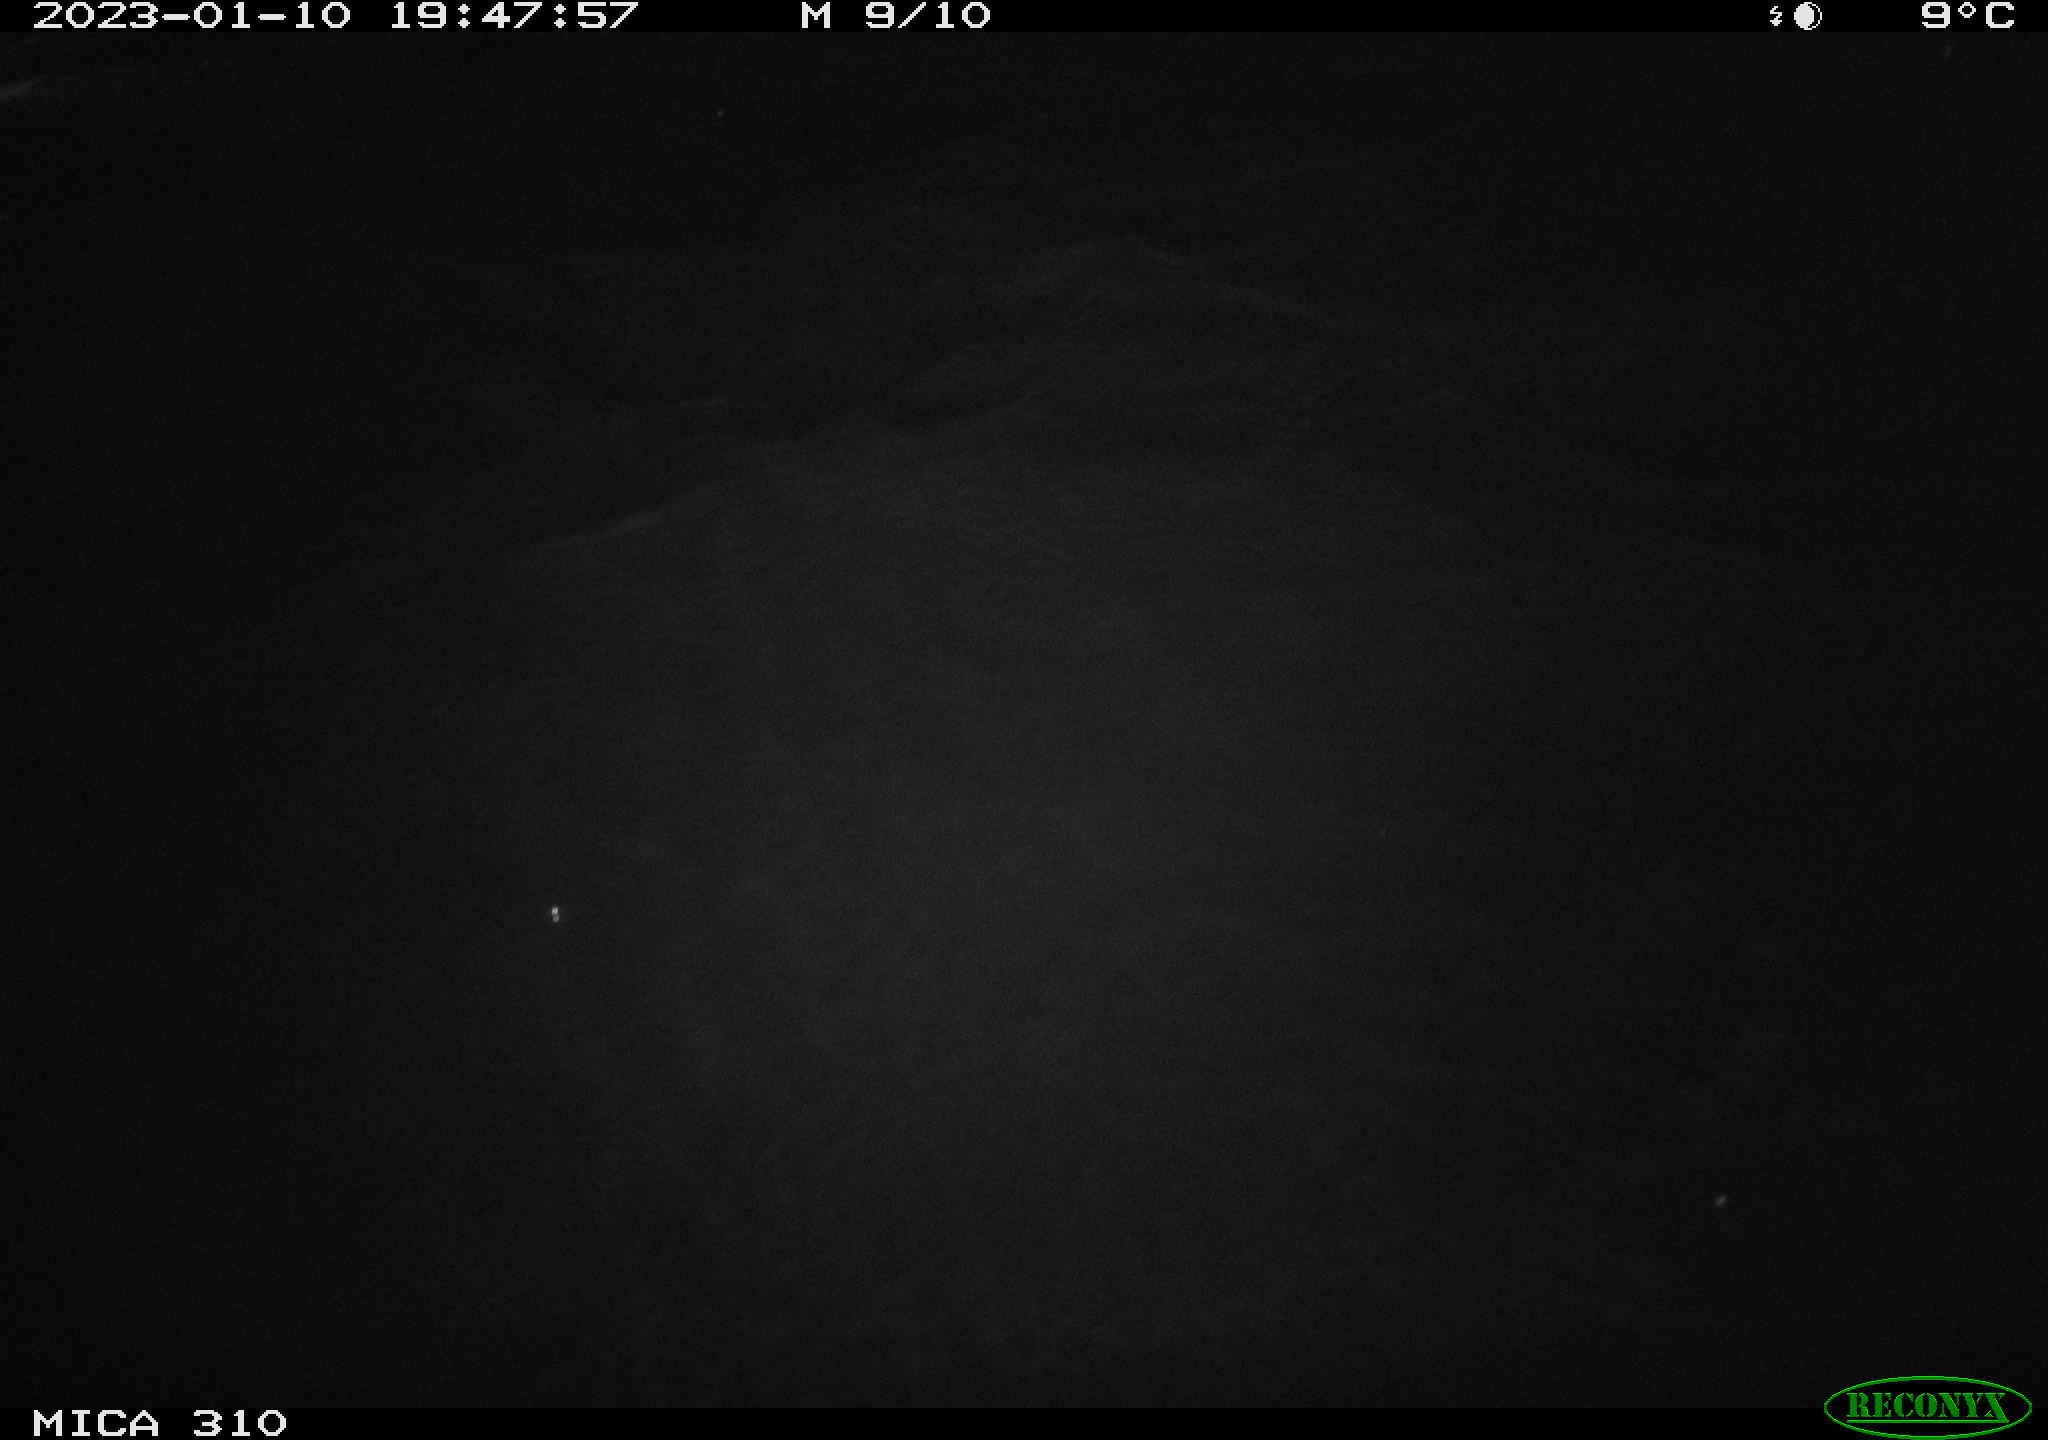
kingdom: Animalia
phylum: Chordata
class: Mammalia
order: Rodentia
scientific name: Rodentia
